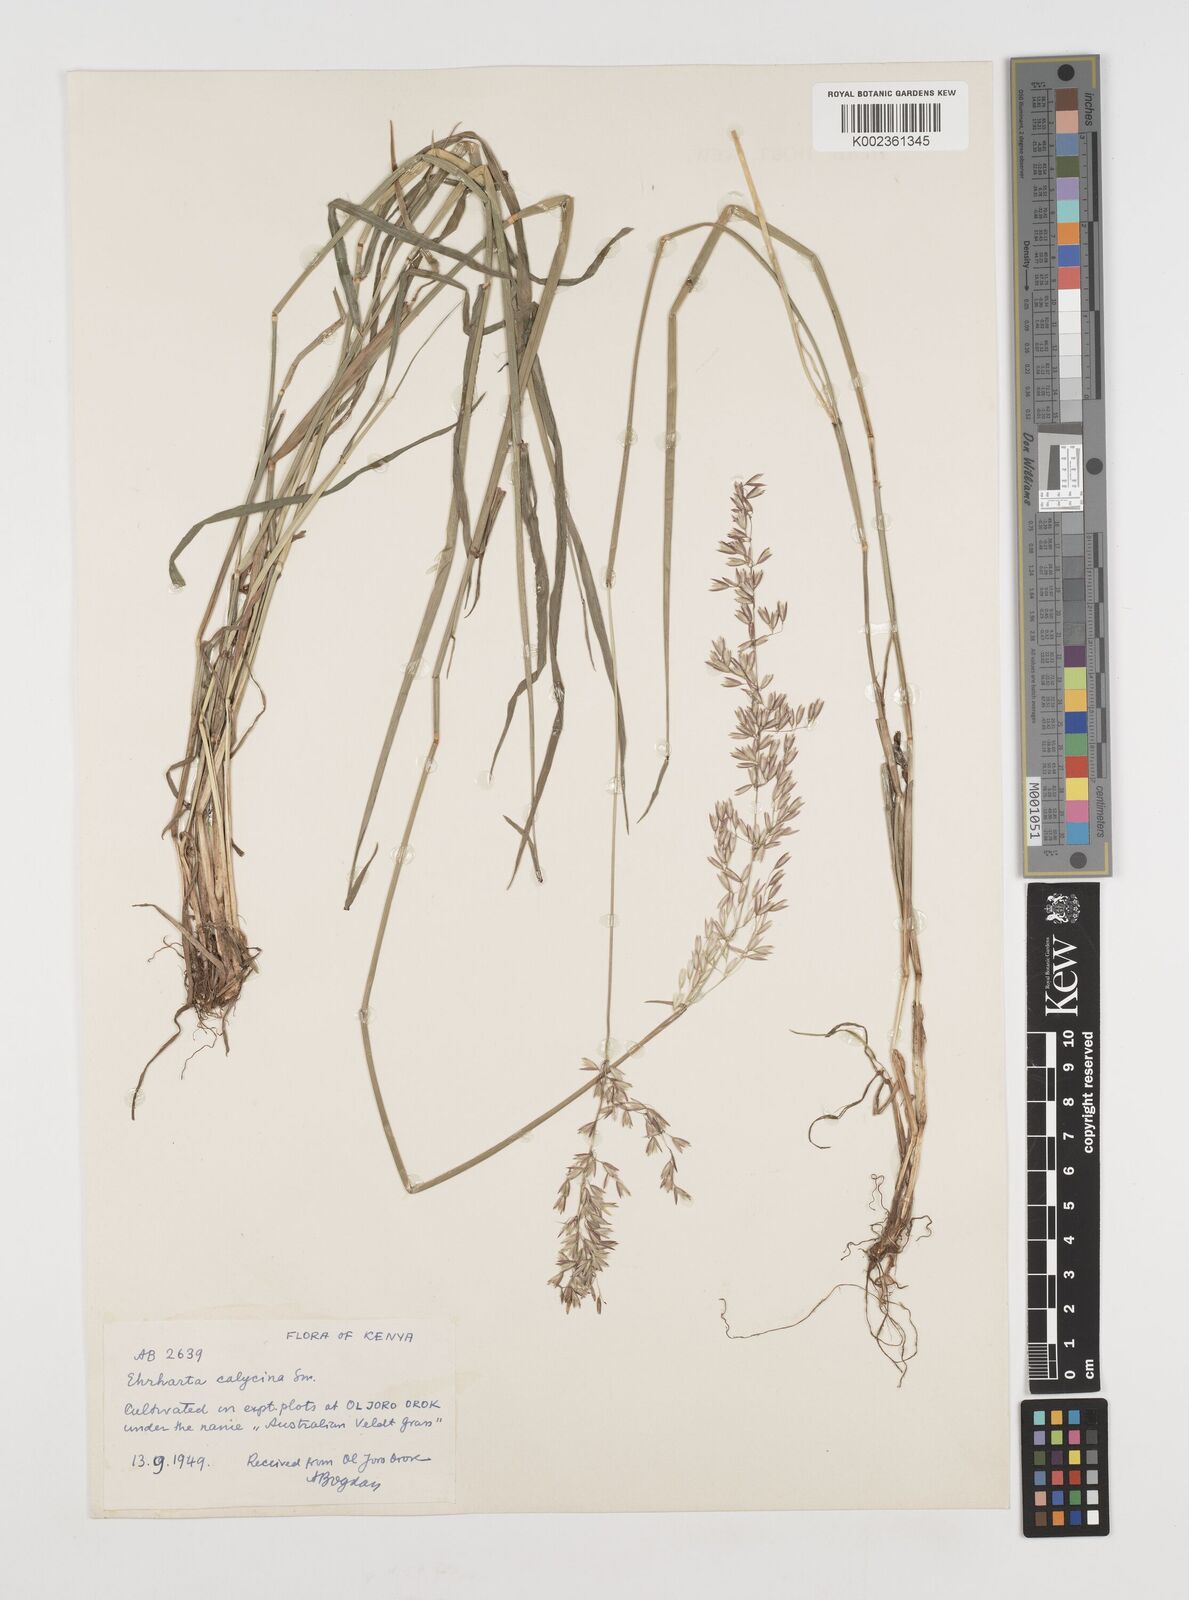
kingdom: Plantae
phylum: Tracheophyta
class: Liliopsida
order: Poales
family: Poaceae
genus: Ehrharta
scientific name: Ehrharta calycina
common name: Perennial veldtgrass
